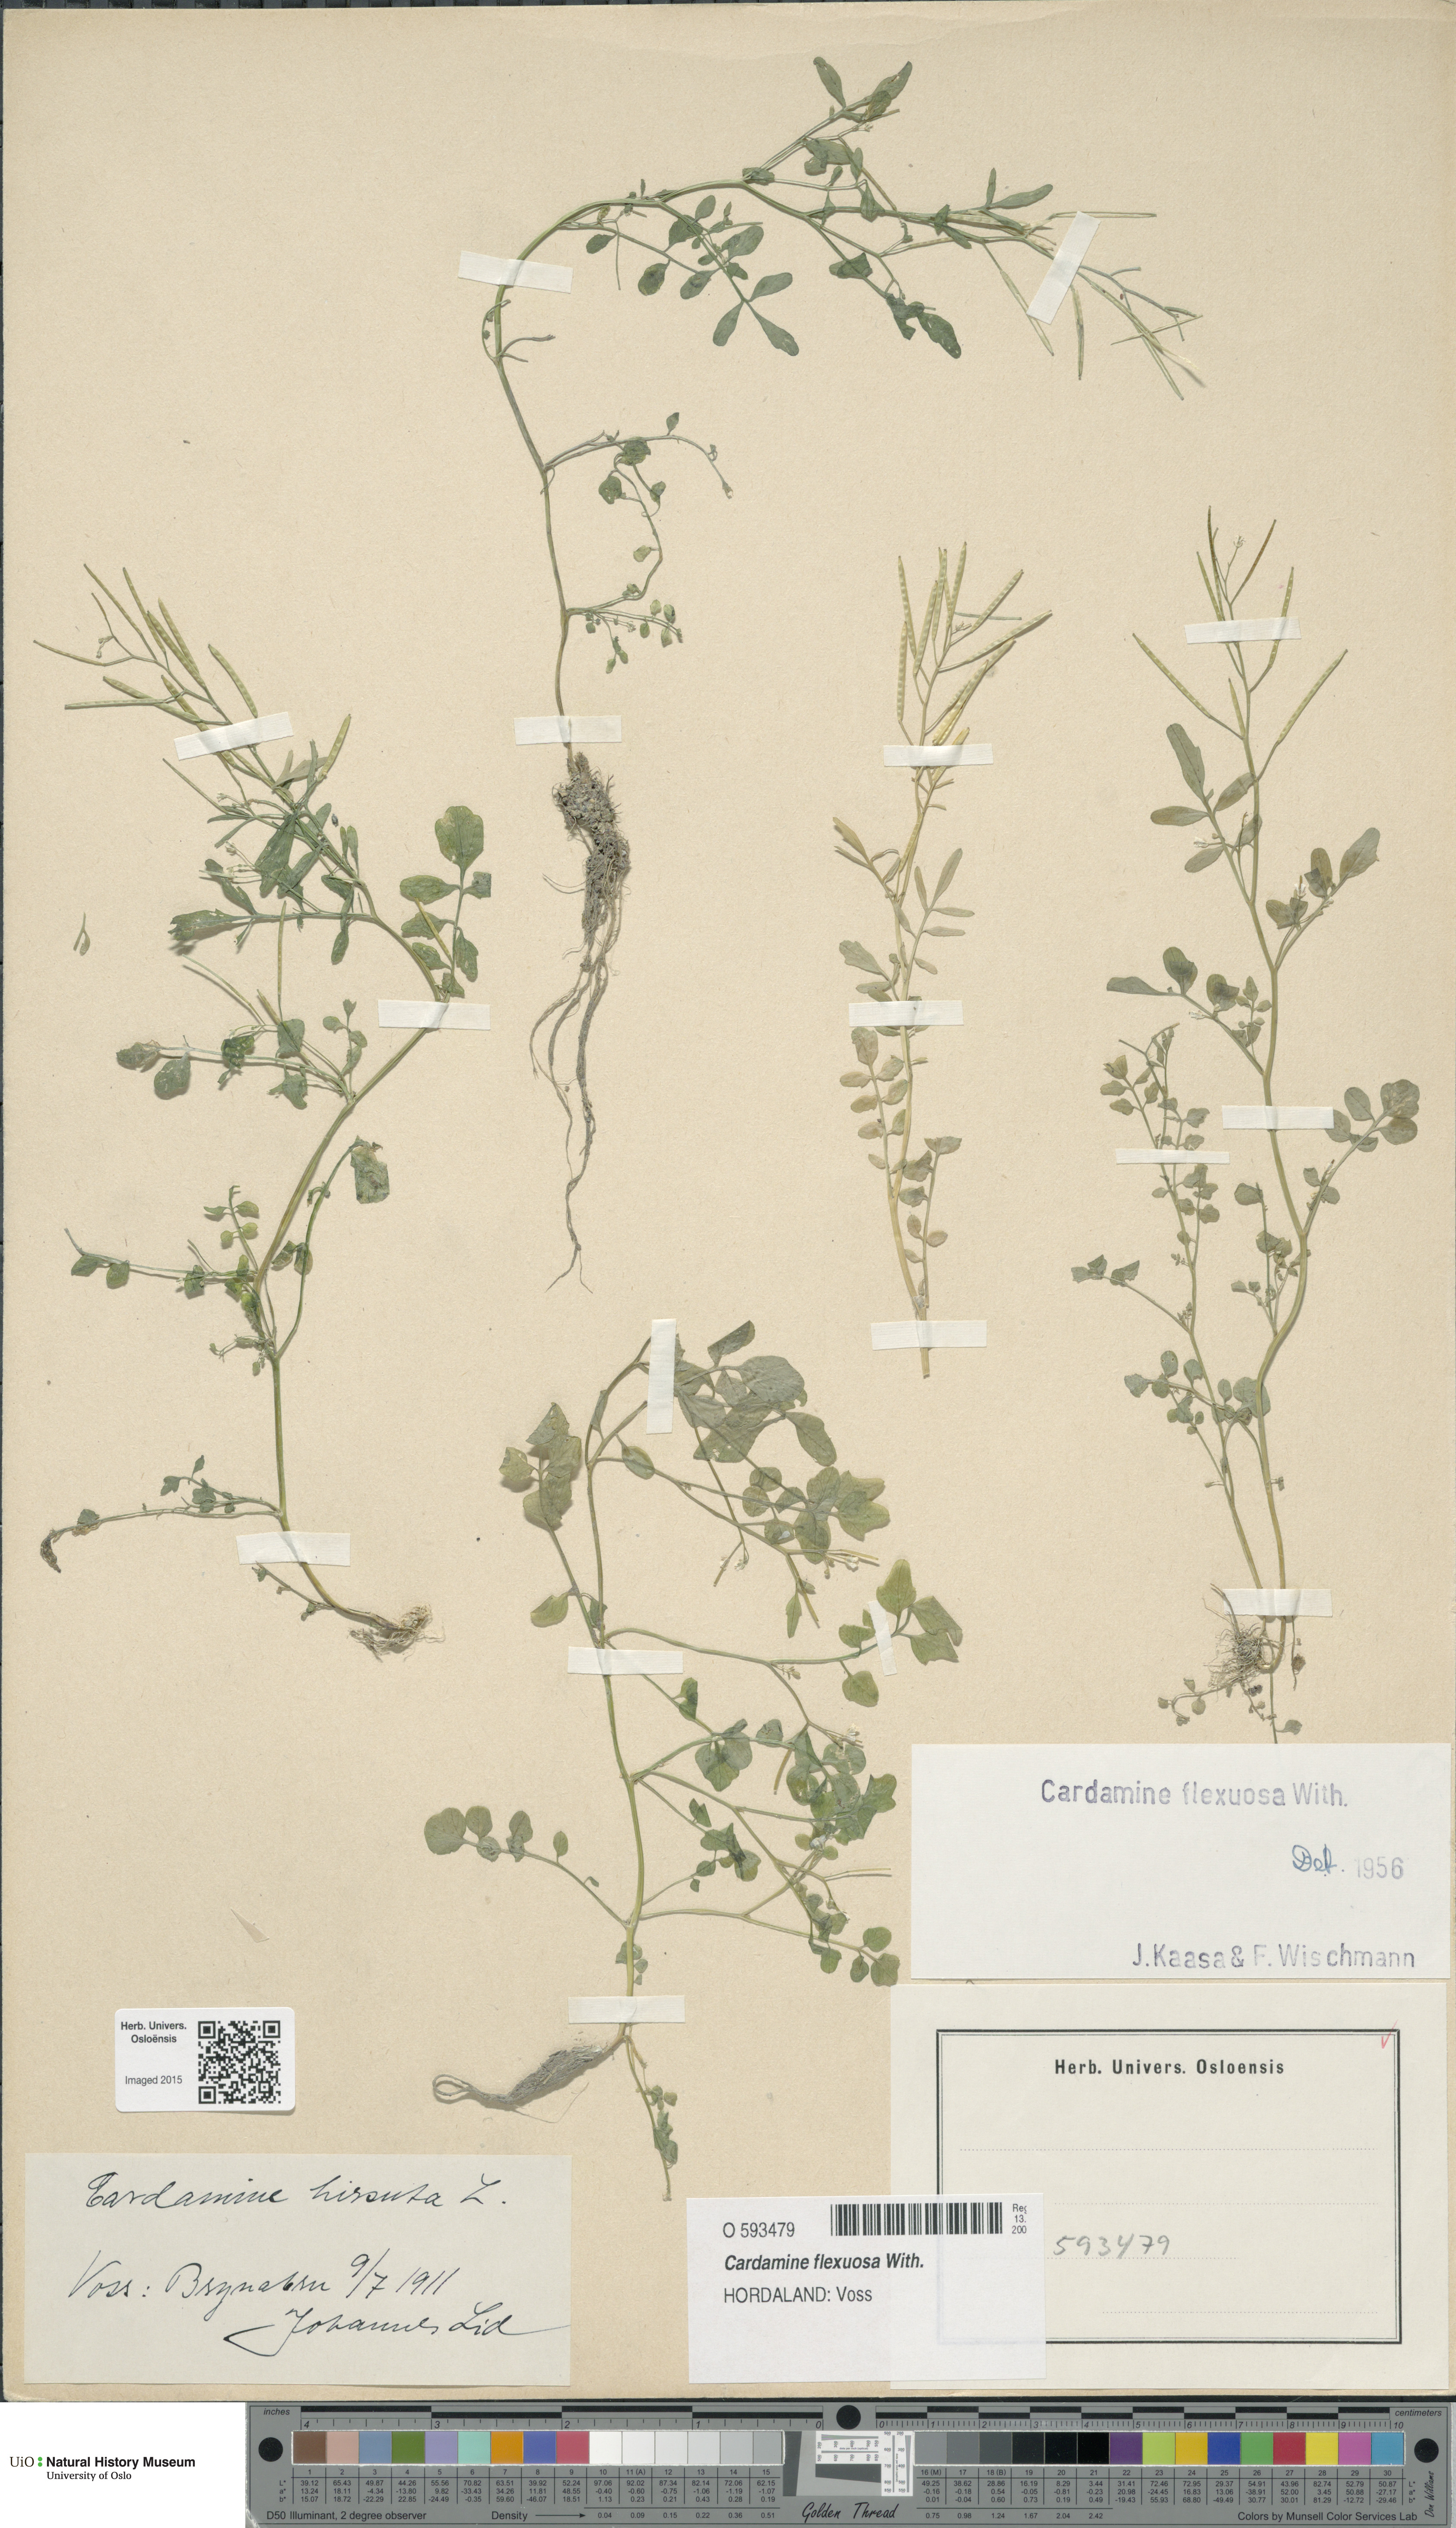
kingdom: Plantae
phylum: Tracheophyta
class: Magnoliopsida
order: Brassicales
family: Brassicaceae
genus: Cardamine
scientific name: Cardamine flexuosa
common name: Woodland bittercress
